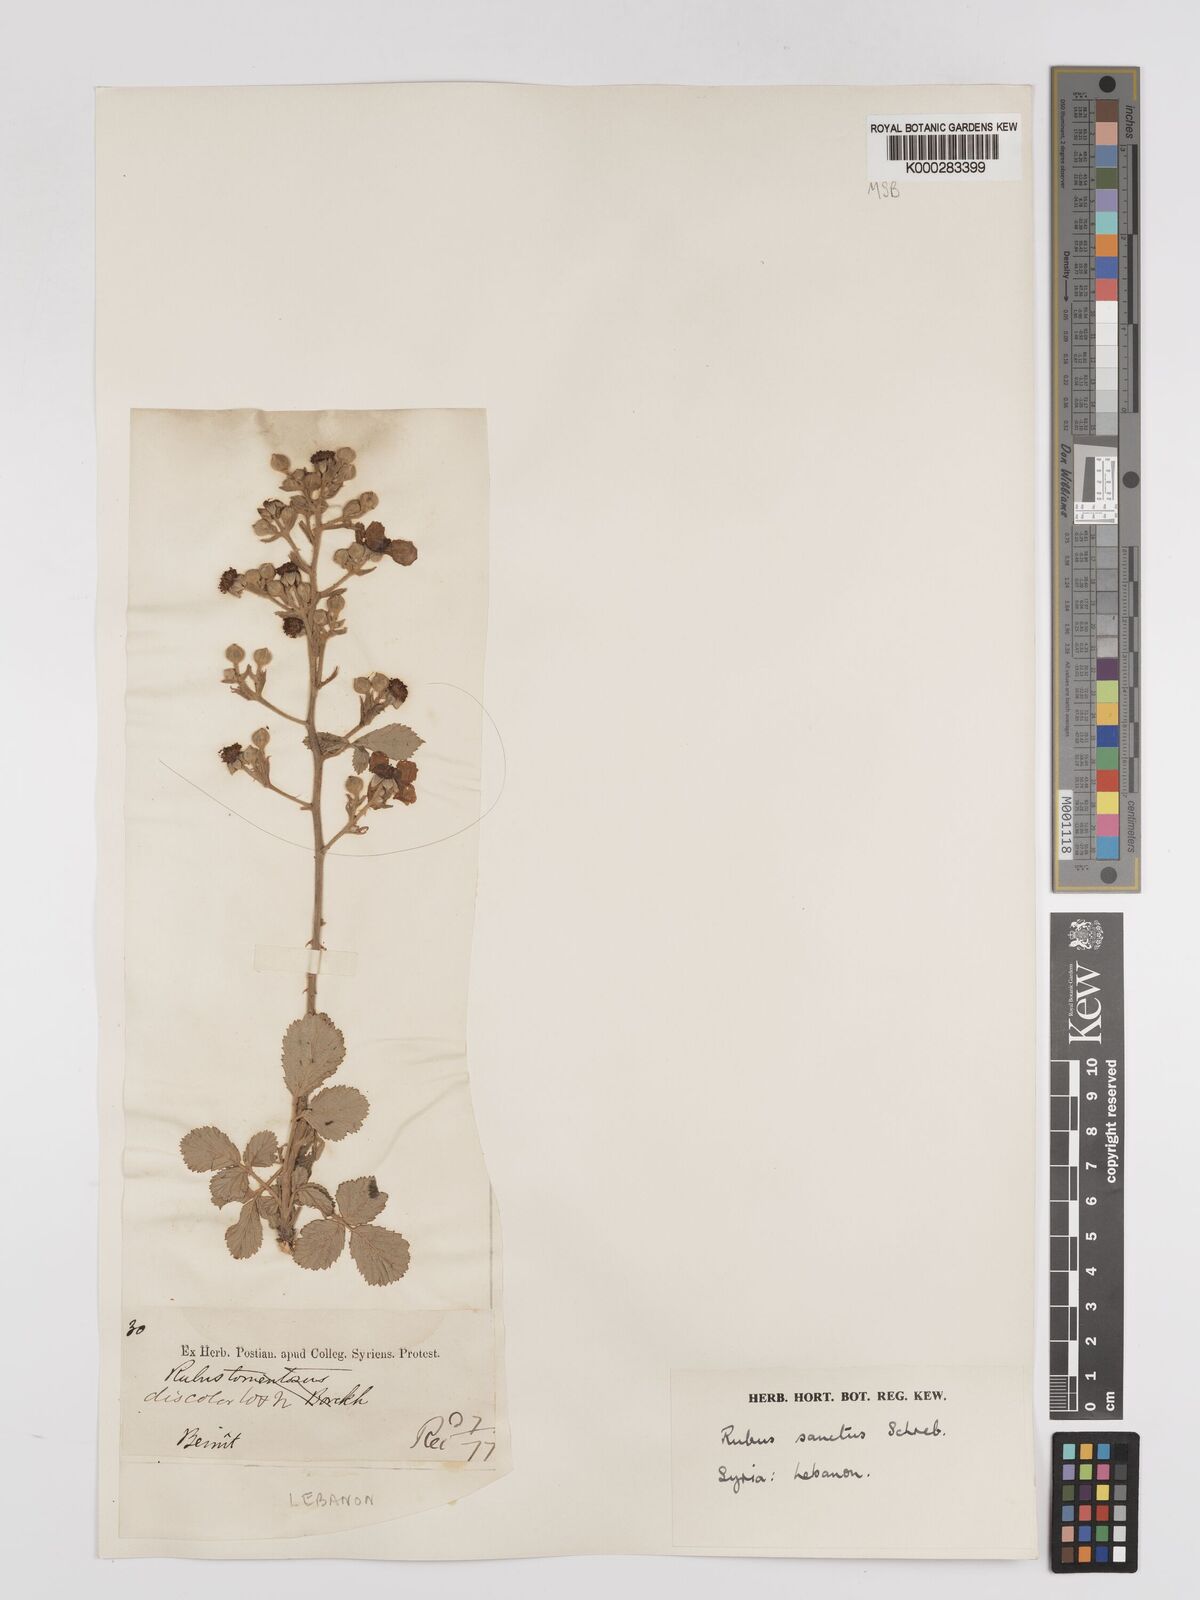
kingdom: Plantae
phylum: Tracheophyta
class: Magnoliopsida
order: Rosales
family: Rosaceae
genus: Rubus
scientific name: Rubus sanctus
